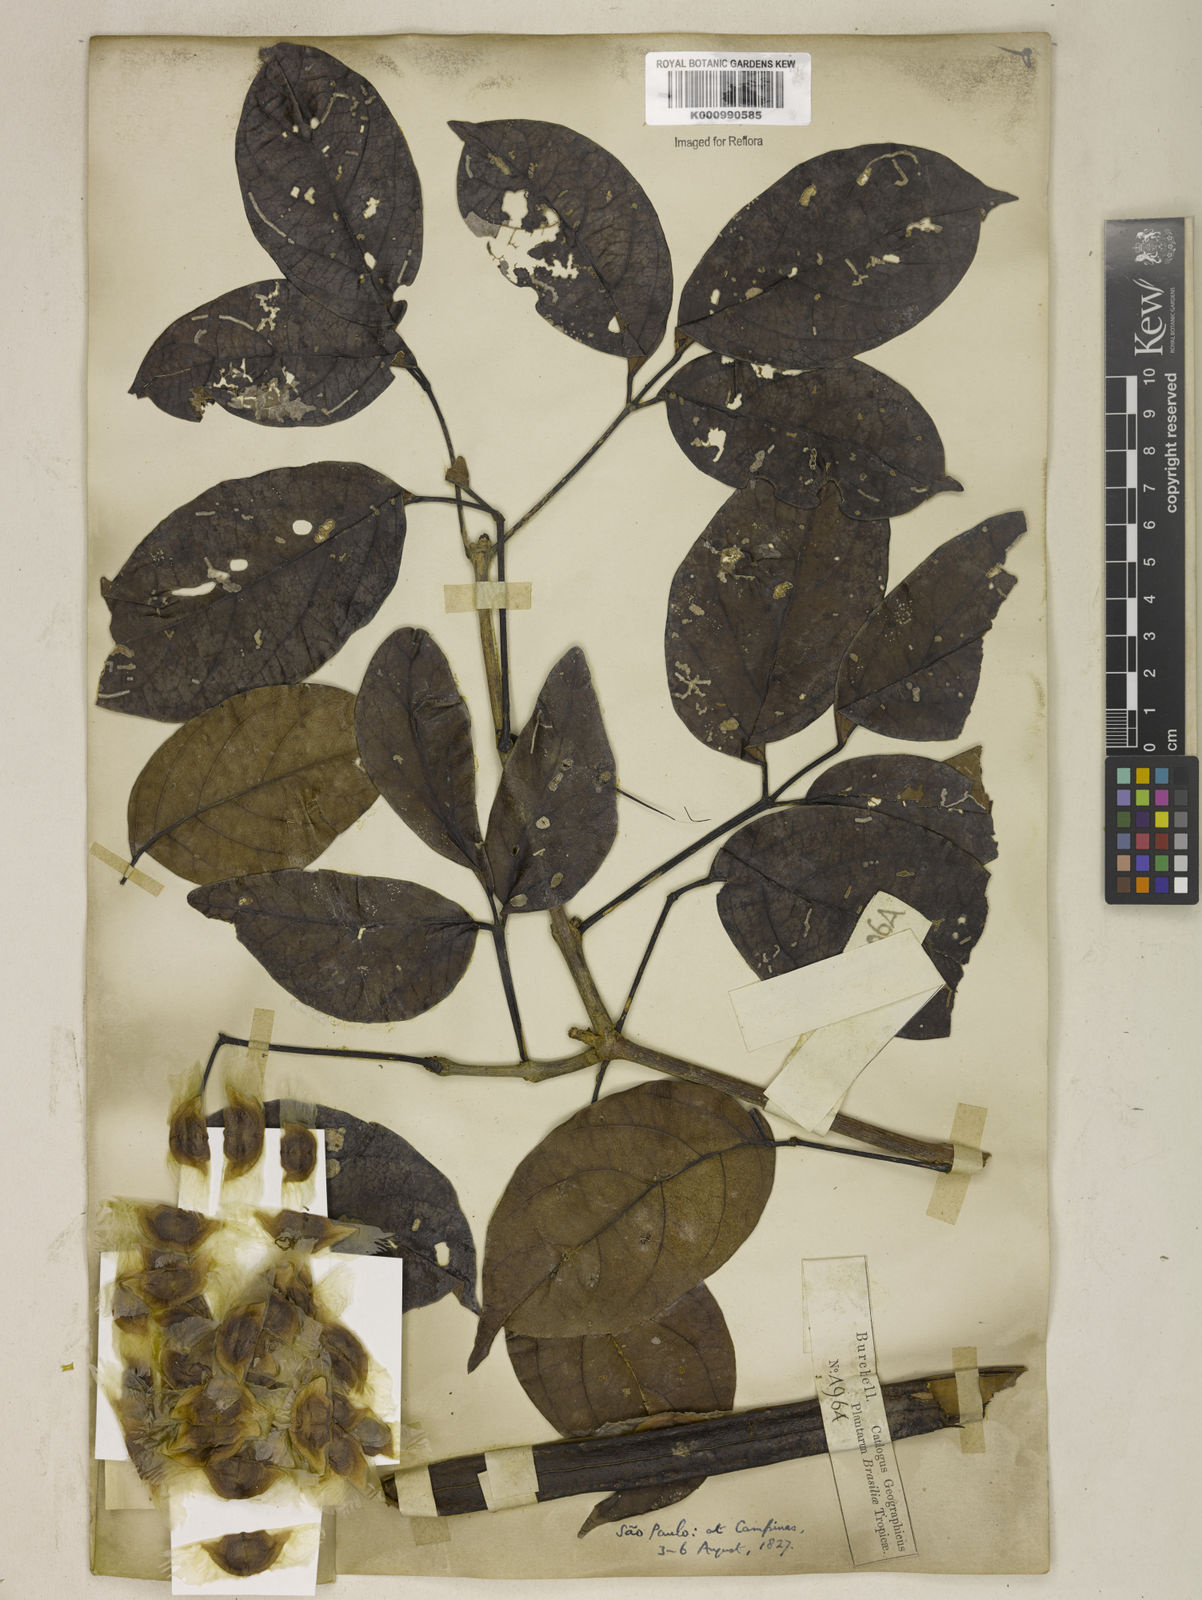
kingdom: Plantae
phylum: Tracheophyta
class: Magnoliopsida
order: Lamiales
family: Bignoniaceae
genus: Fridericia
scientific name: Fridericia speciosa
